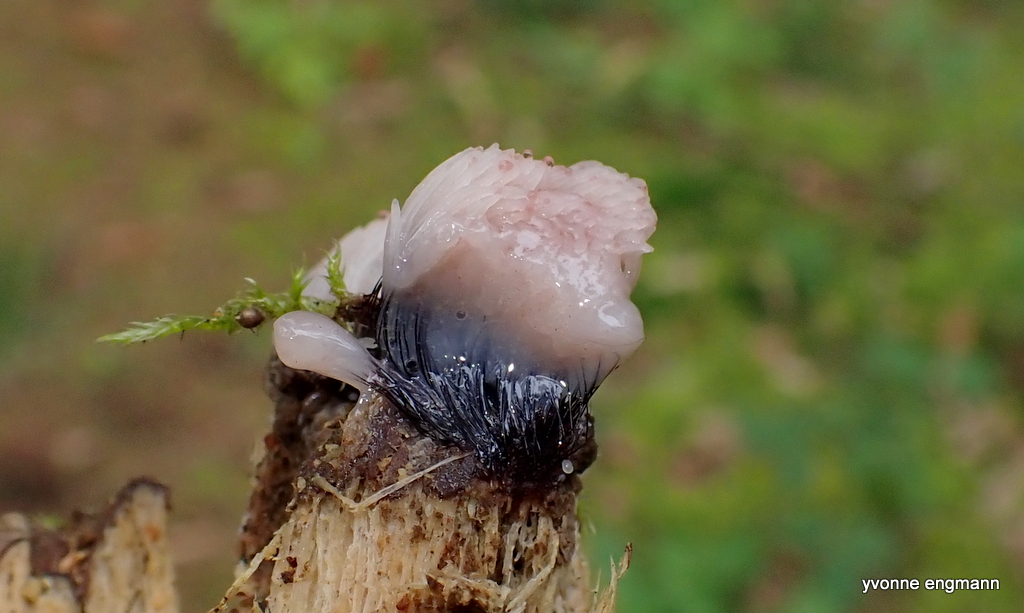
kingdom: Protozoa
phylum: Mycetozoa
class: Myxomycetes
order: Stemonitidales
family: Stemonitidaceae
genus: Stemonitis
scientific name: Stemonitis
